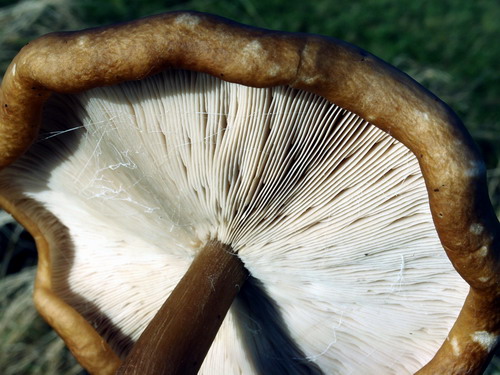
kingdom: Fungi
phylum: Basidiomycota
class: Agaricomycetes
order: Agaricales
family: Tricholomataceae
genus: Melanoleuca
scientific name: Melanoleuca ammophila
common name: gråbladet munkehat
